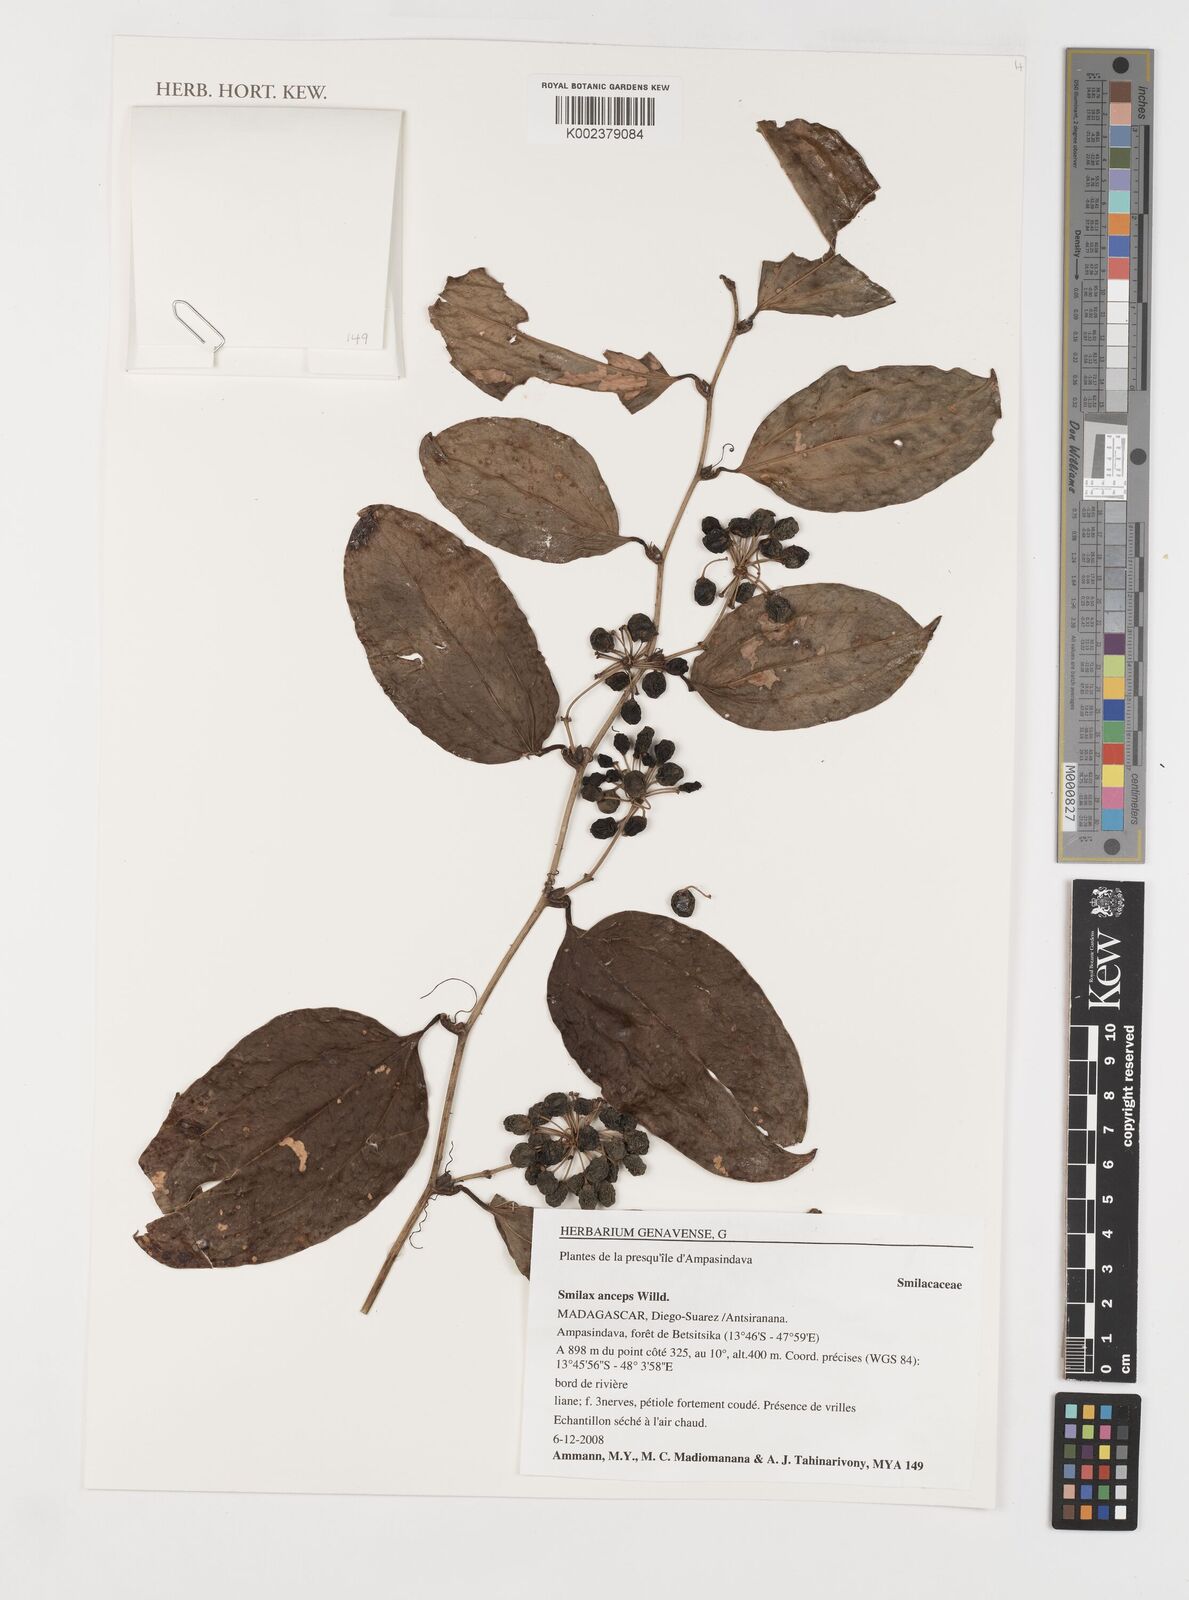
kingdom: Plantae
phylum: Tracheophyta
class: Liliopsida
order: Liliales
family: Smilacaceae
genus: Smilax
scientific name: Smilax anceps
